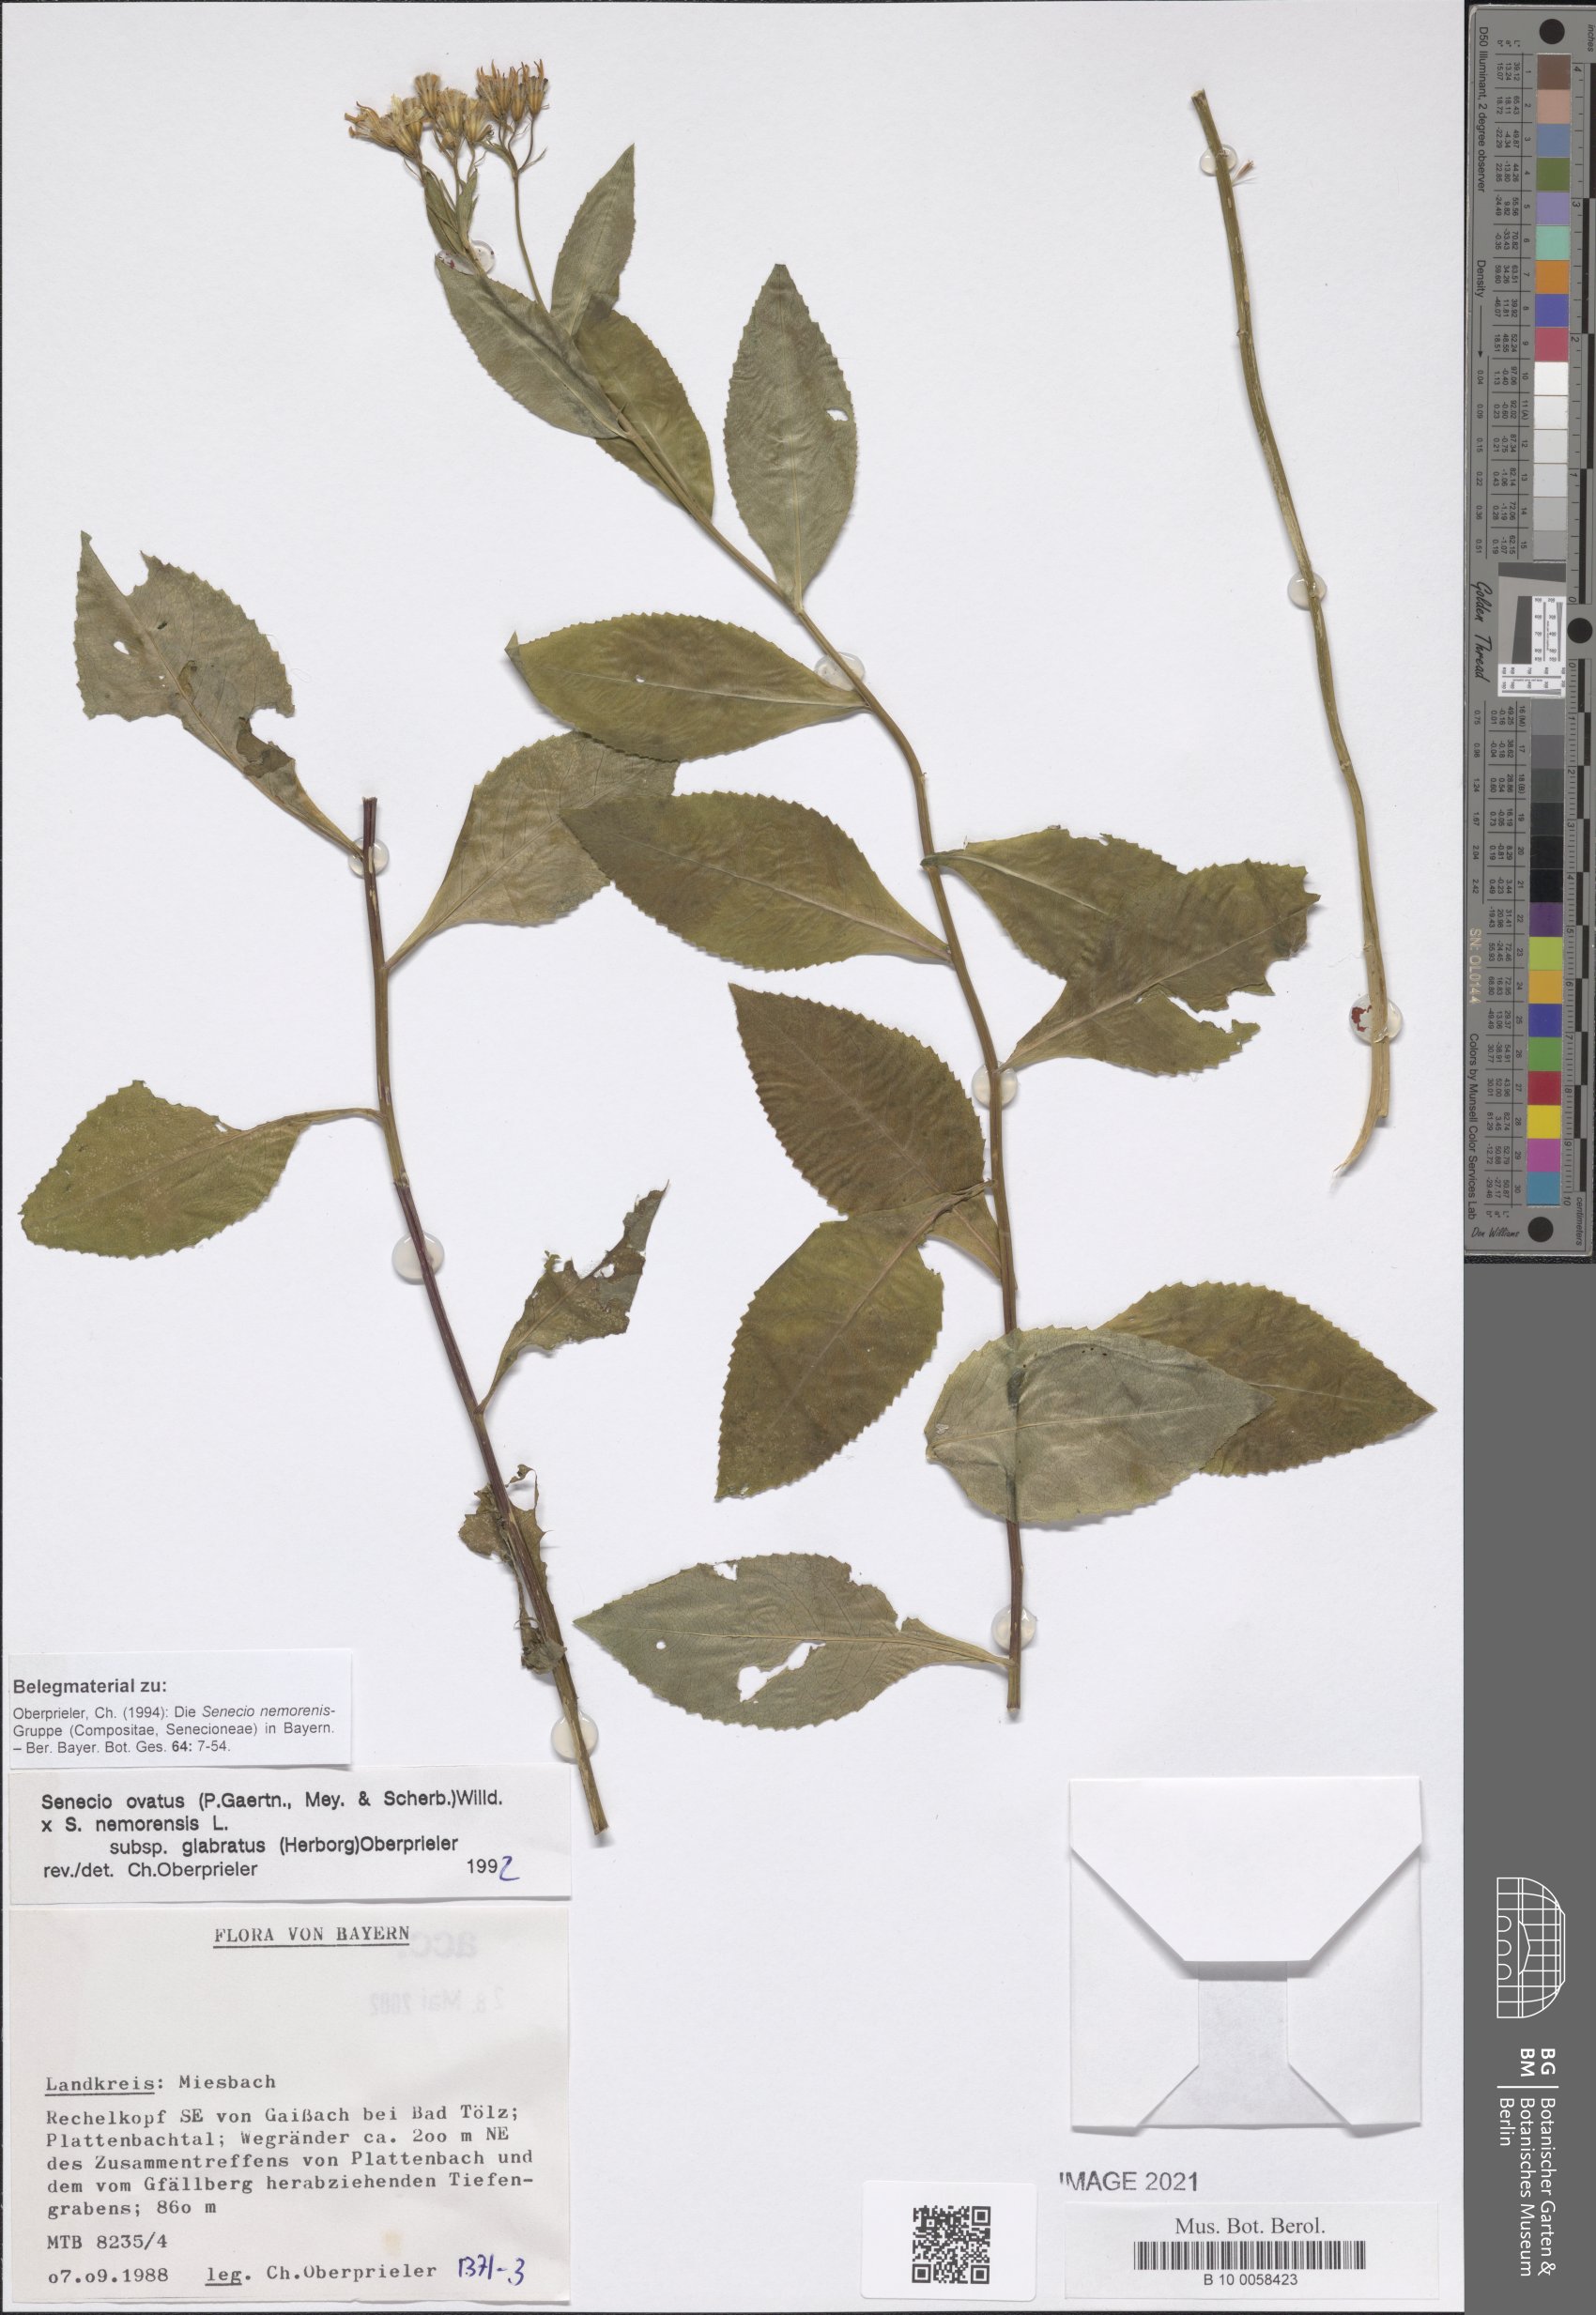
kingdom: Plantae
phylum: Tracheophyta
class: Magnoliopsida
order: Asterales
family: Asteraceae
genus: Senecio
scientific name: Senecio ovatus
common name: Wood ragwort
